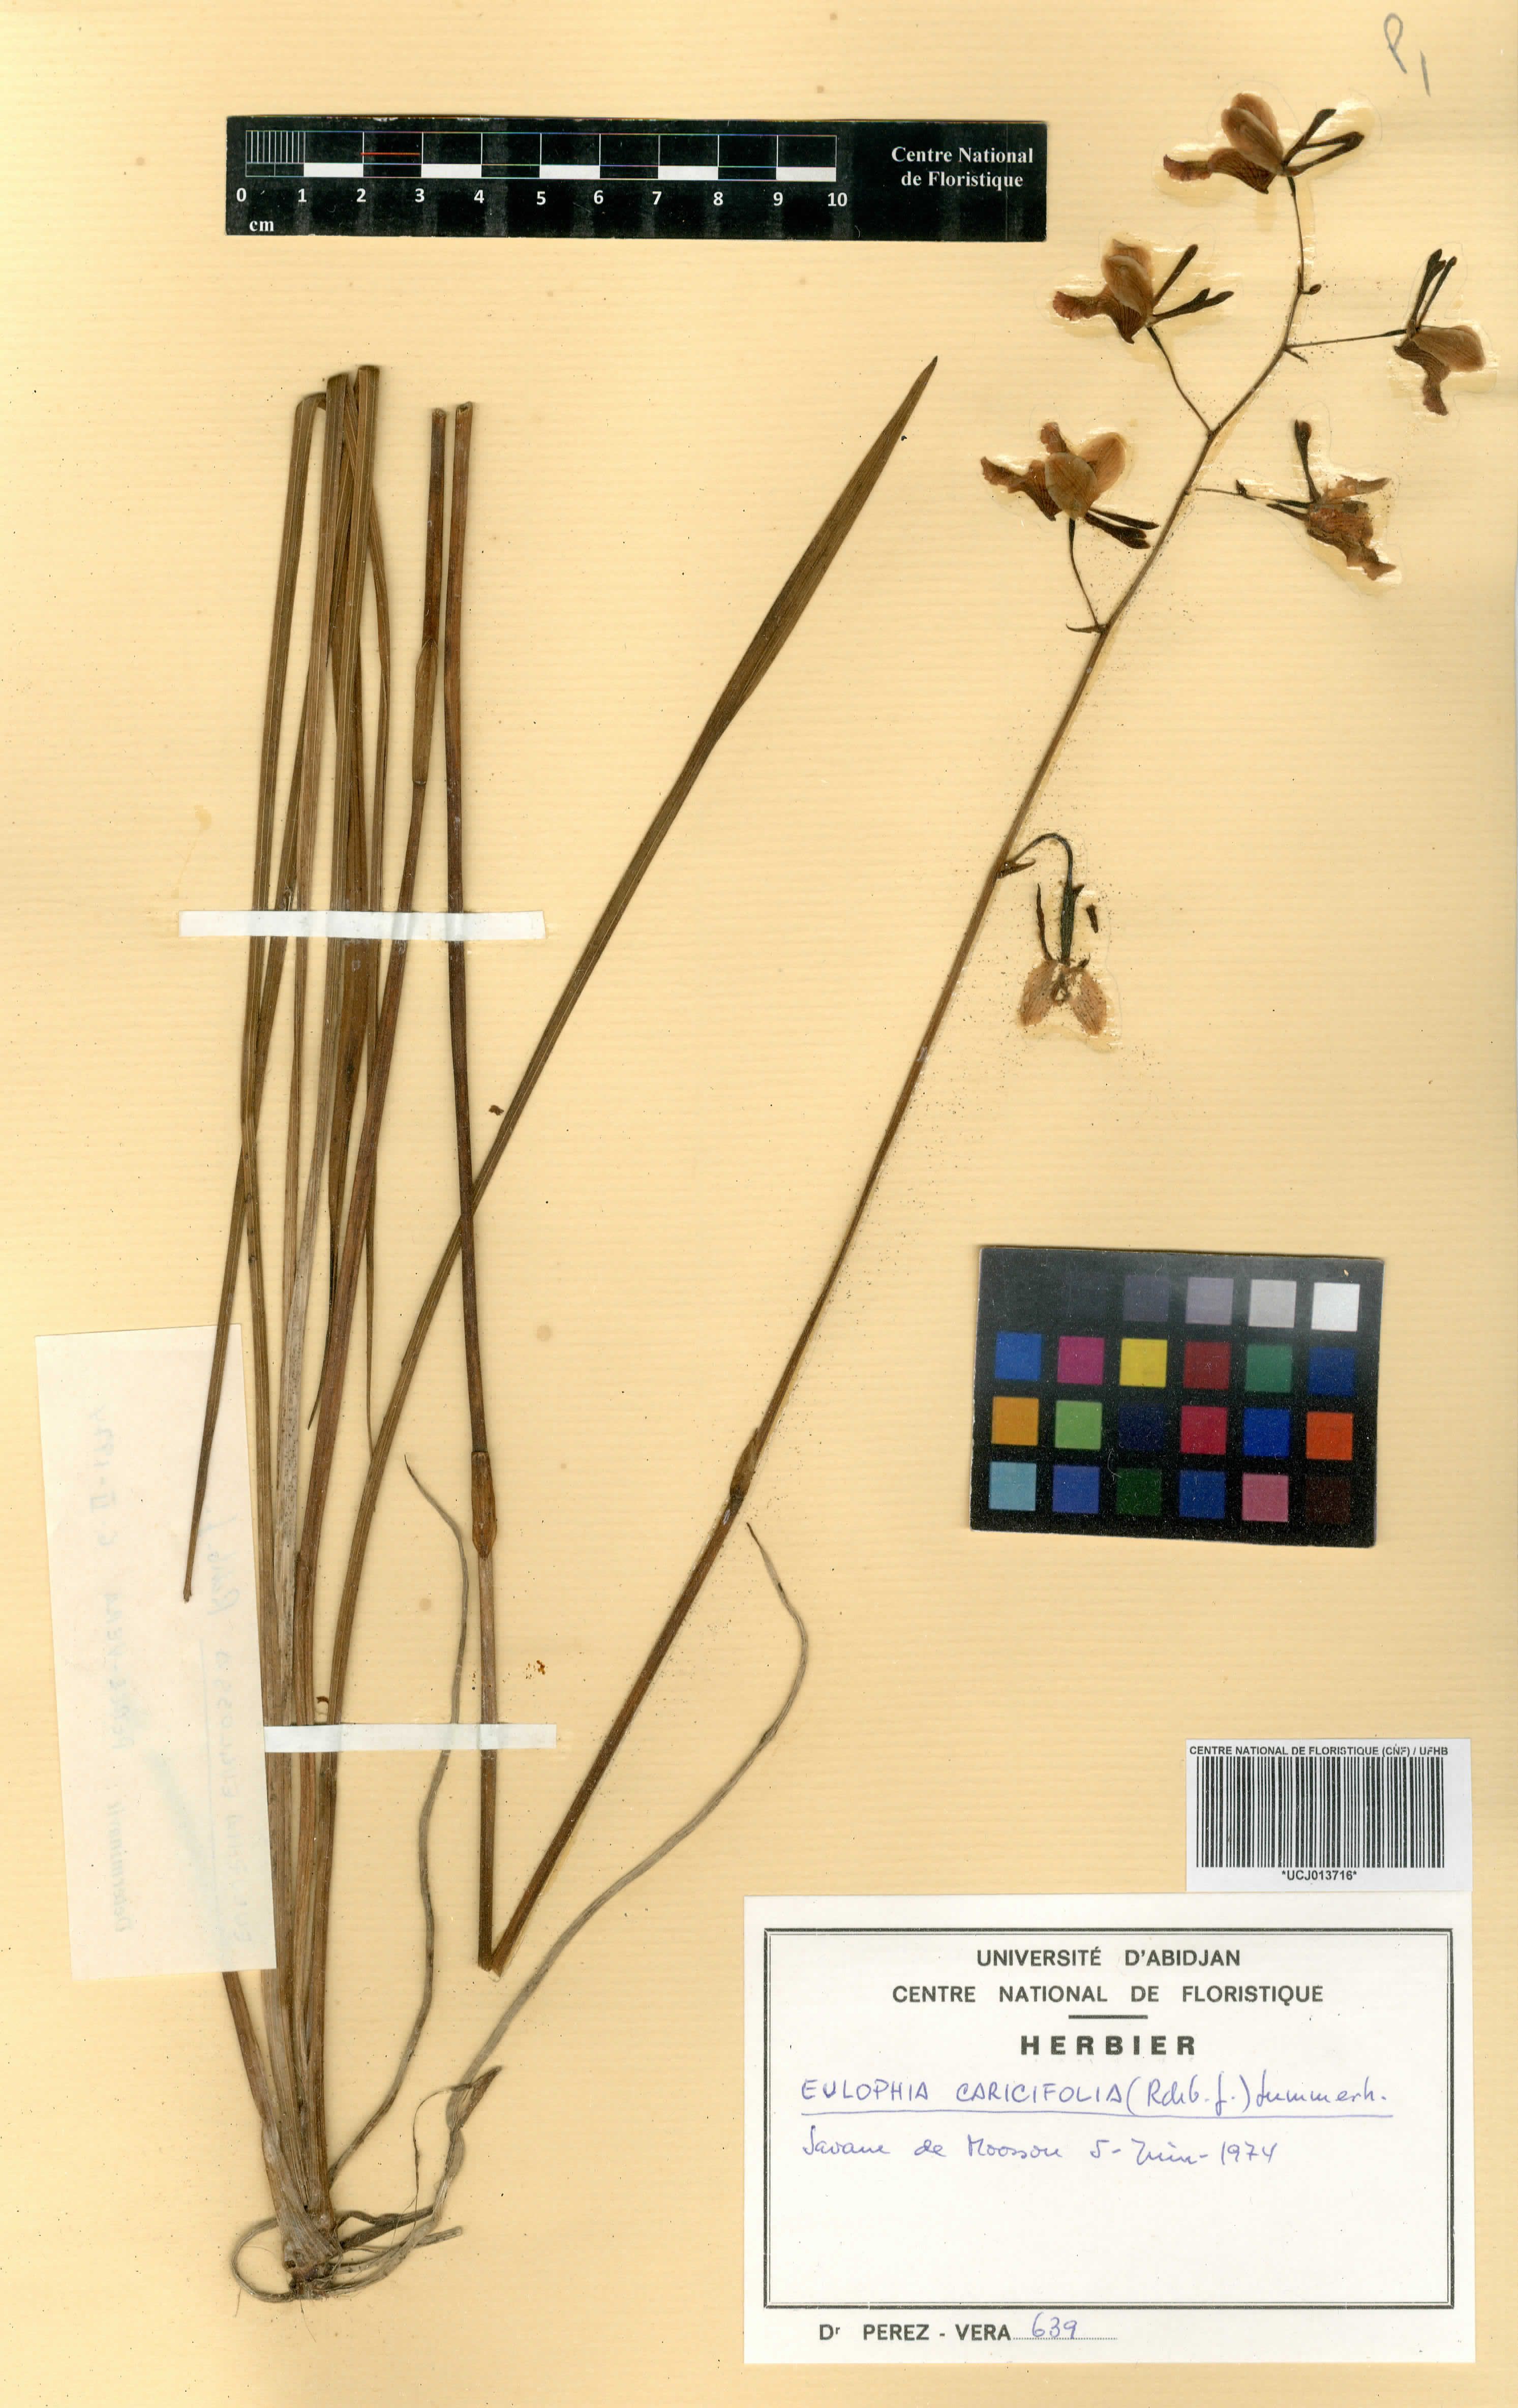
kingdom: Plantae
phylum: Tracheophyta
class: Liliopsida
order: Asparagales
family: Orchidaceae
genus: Eulophia
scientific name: Eulophia caricifolia
